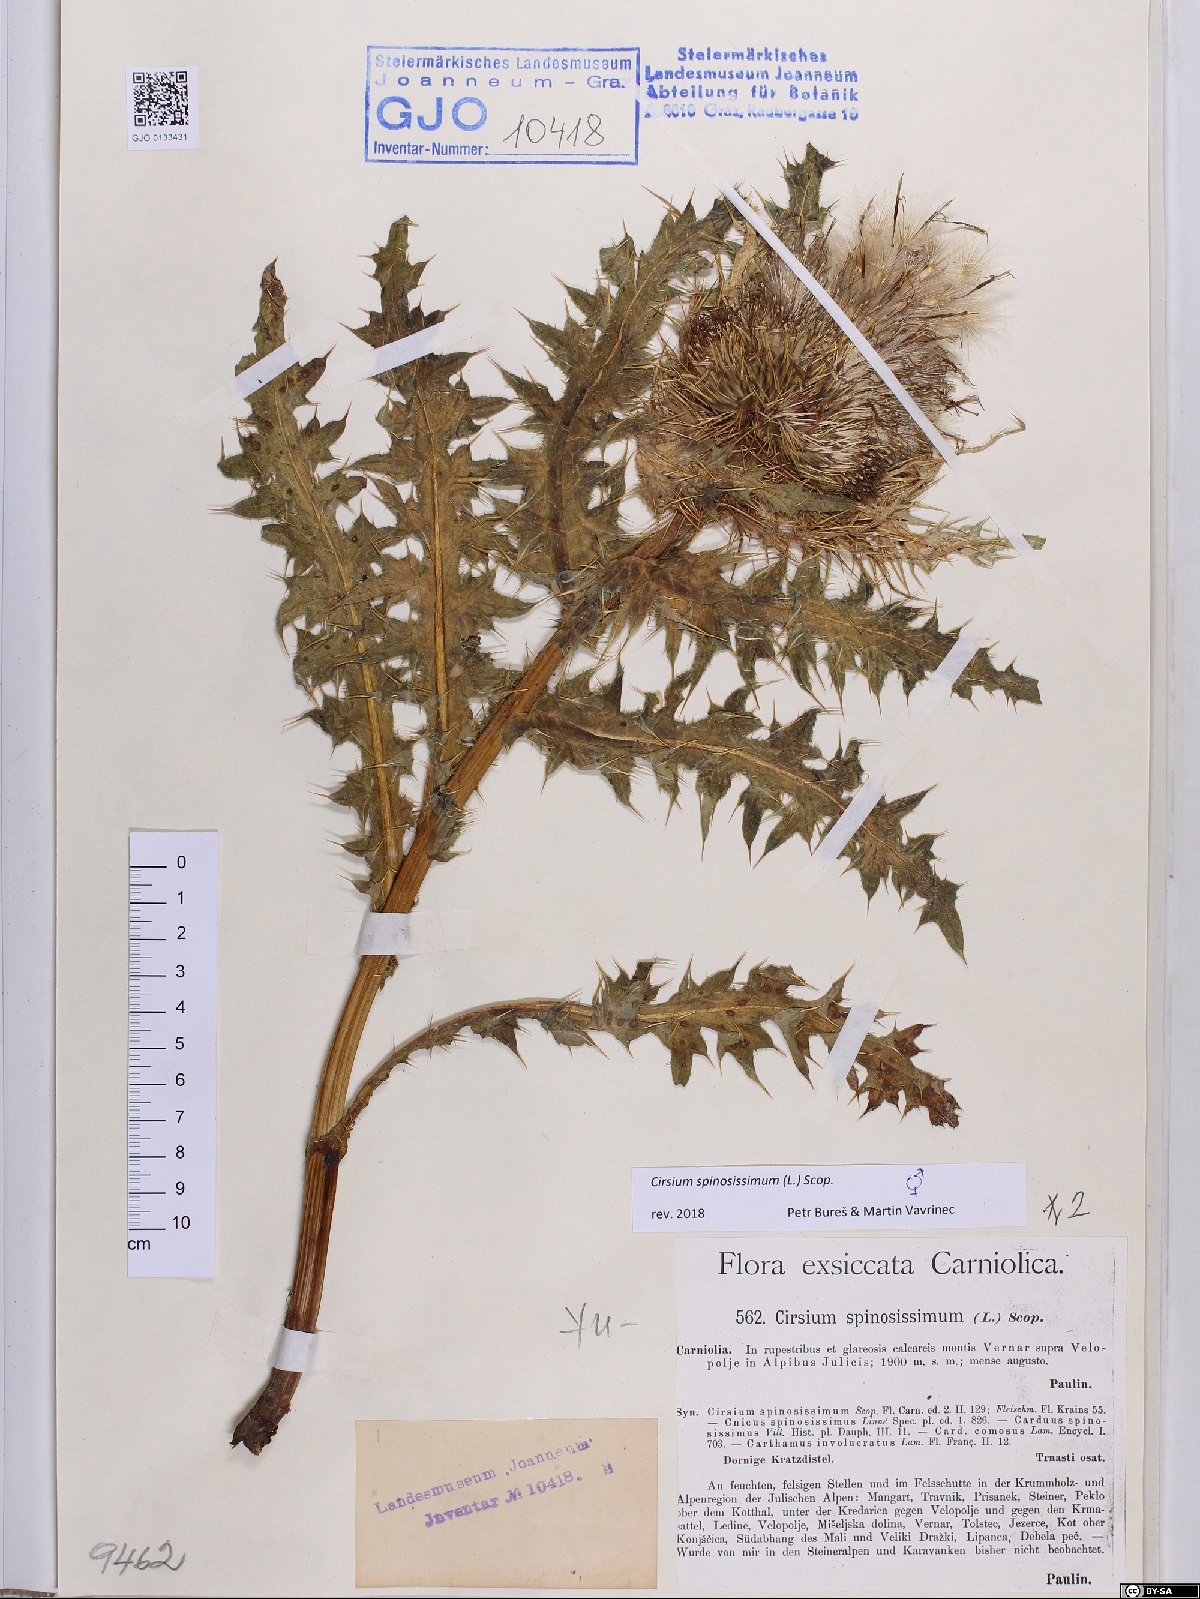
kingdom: Plantae
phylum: Tracheophyta
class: Magnoliopsida
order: Asterales
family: Asteraceae
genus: Cirsium
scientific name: Cirsium spinosissimum
